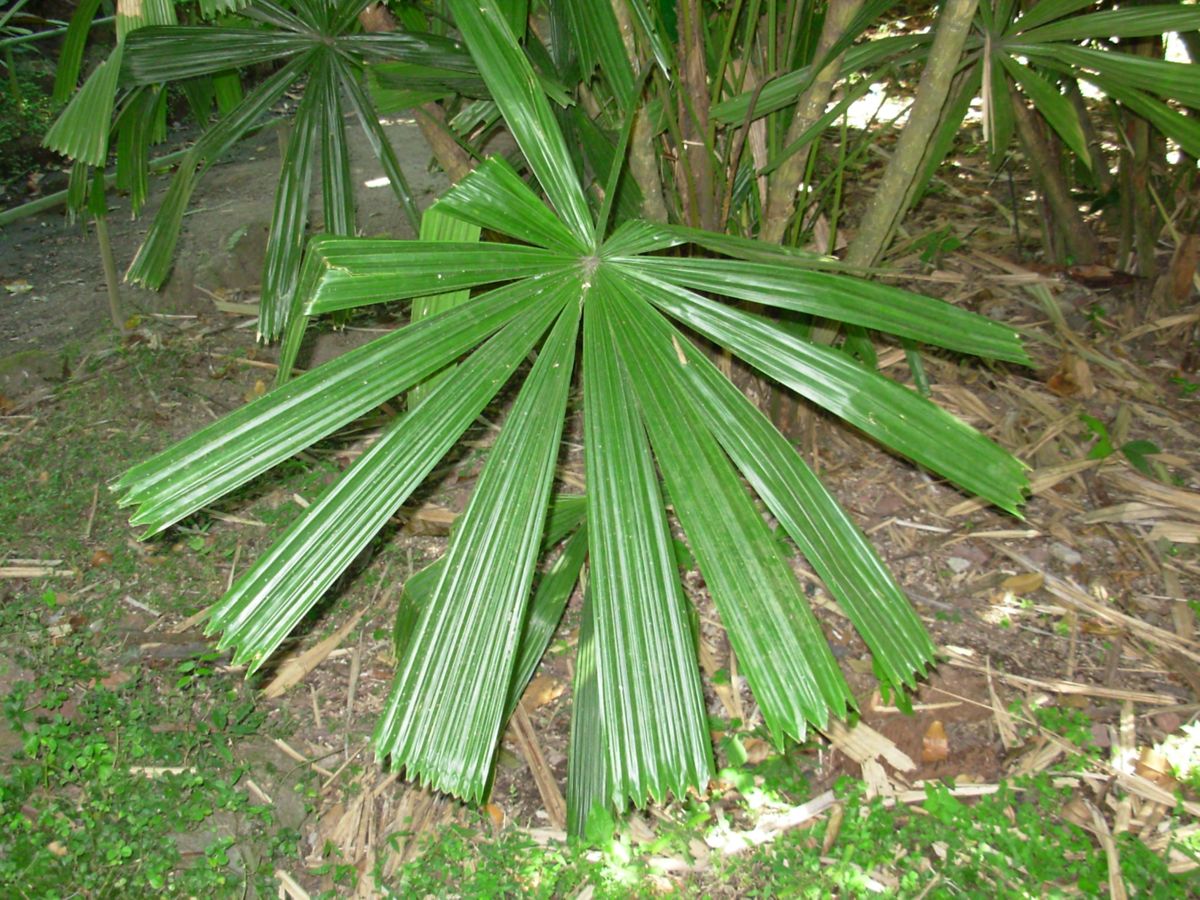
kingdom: Plantae
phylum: Tracheophyta
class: Liliopsida
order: Arecales
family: Arecaceae
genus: Rhapis
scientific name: Rhapis excelsa
